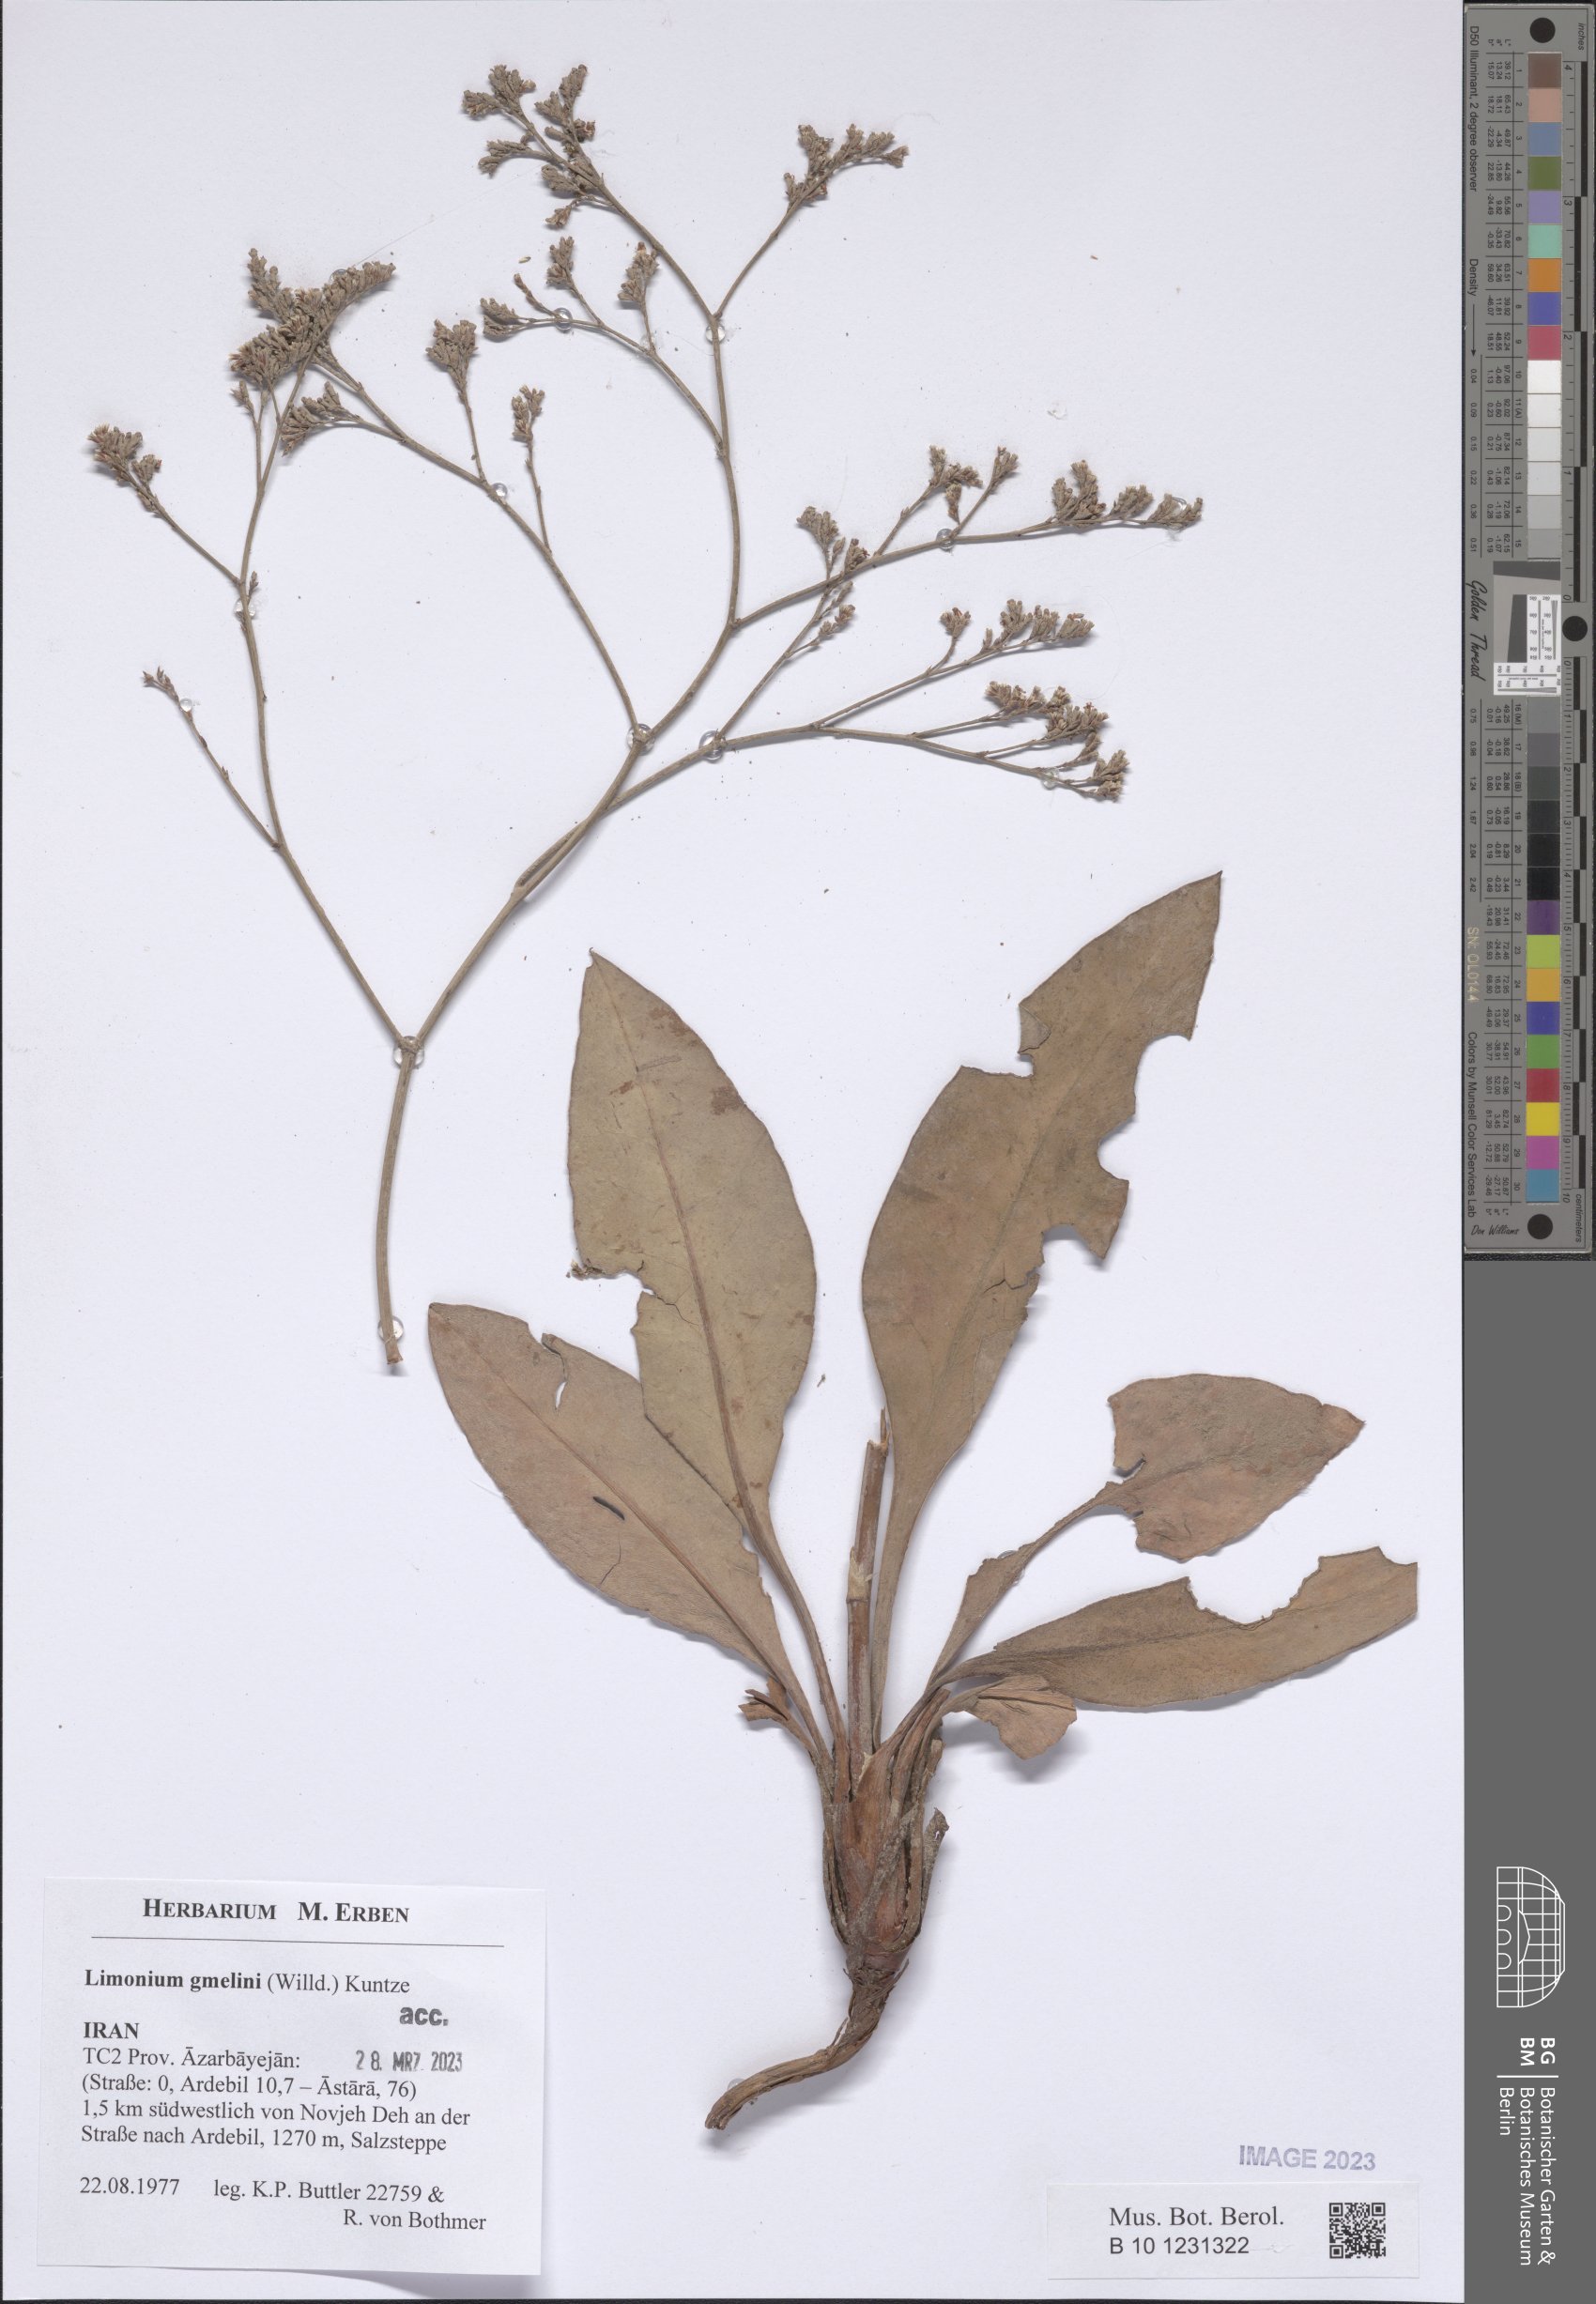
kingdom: Plantae
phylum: Tracheophyta
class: Magnoliopsida
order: Caryophyllales
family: Plumbaginaceae
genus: Limonium
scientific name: Limonium gmelini
